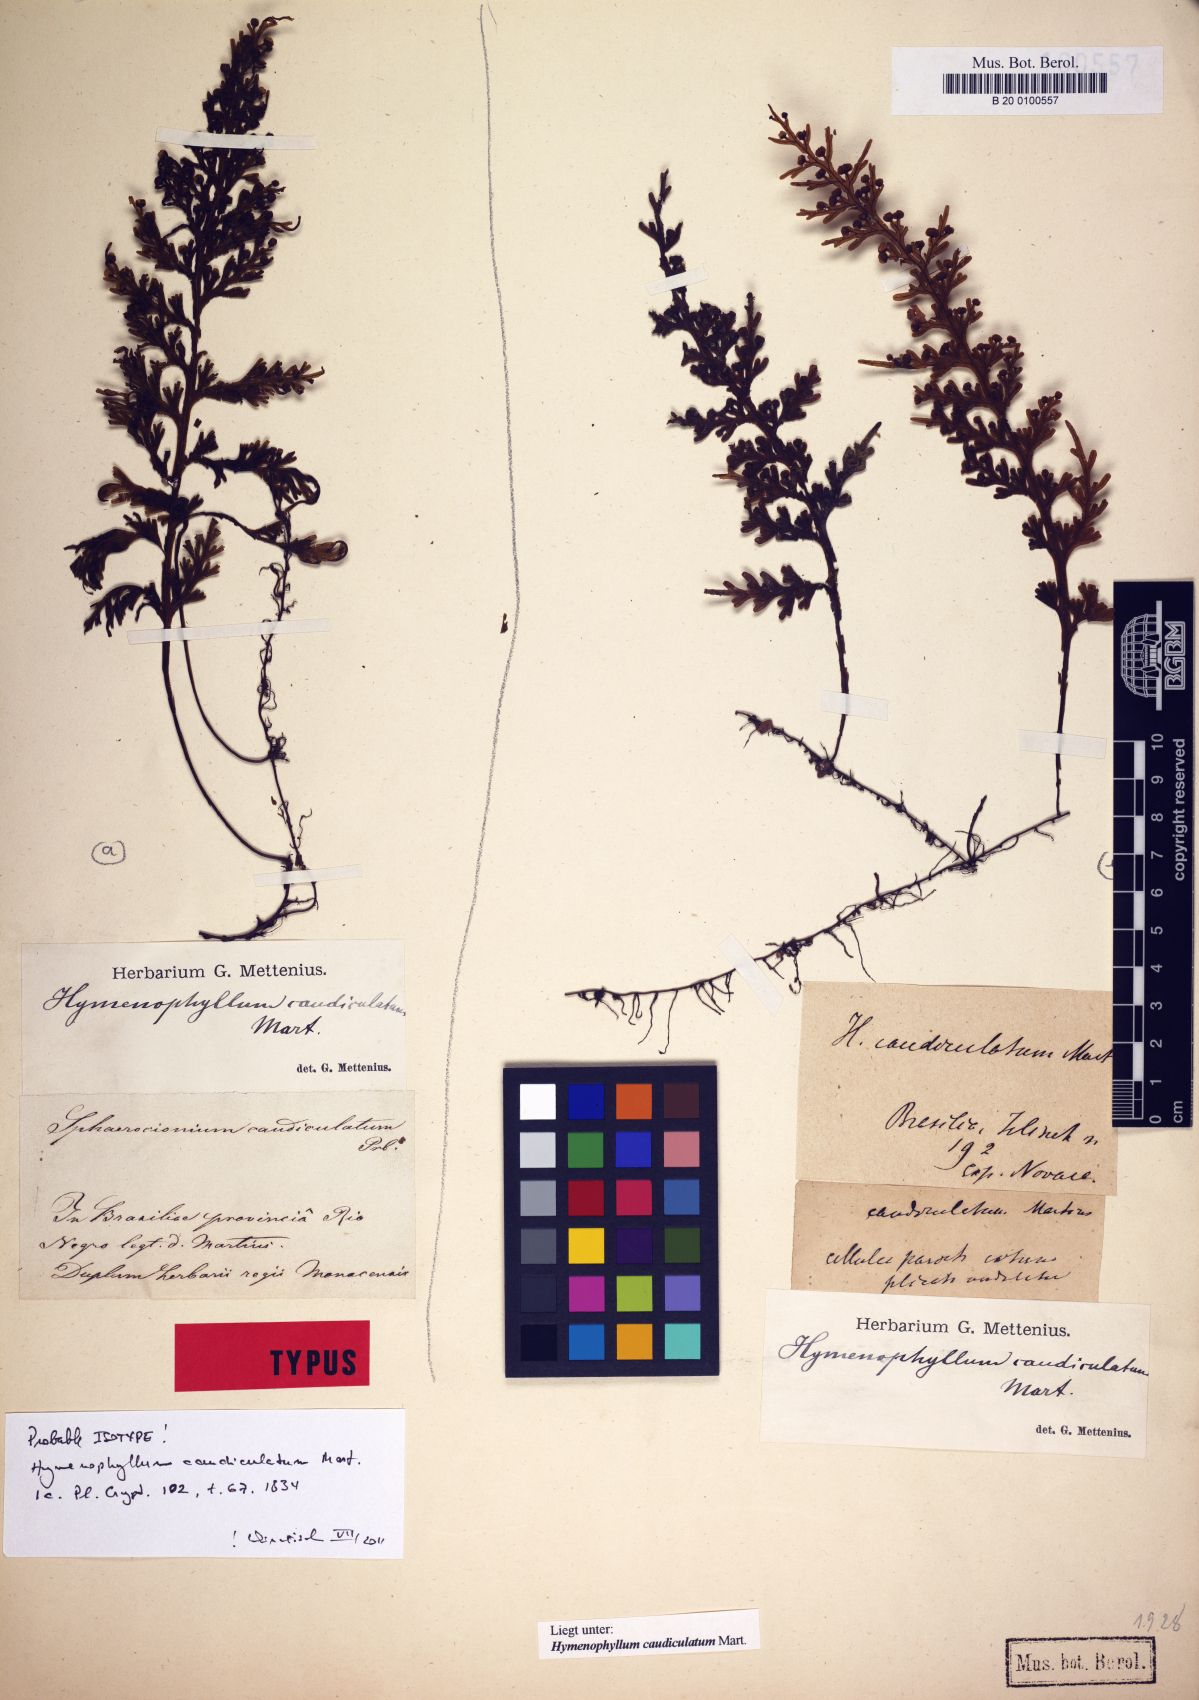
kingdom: Plantae
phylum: Tracheophyta
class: Polypodiopsida
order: Hymenophyllales
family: Hymenophyllaceae
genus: Hymenophyllum
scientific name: Hymenophyllum caudiculatum
